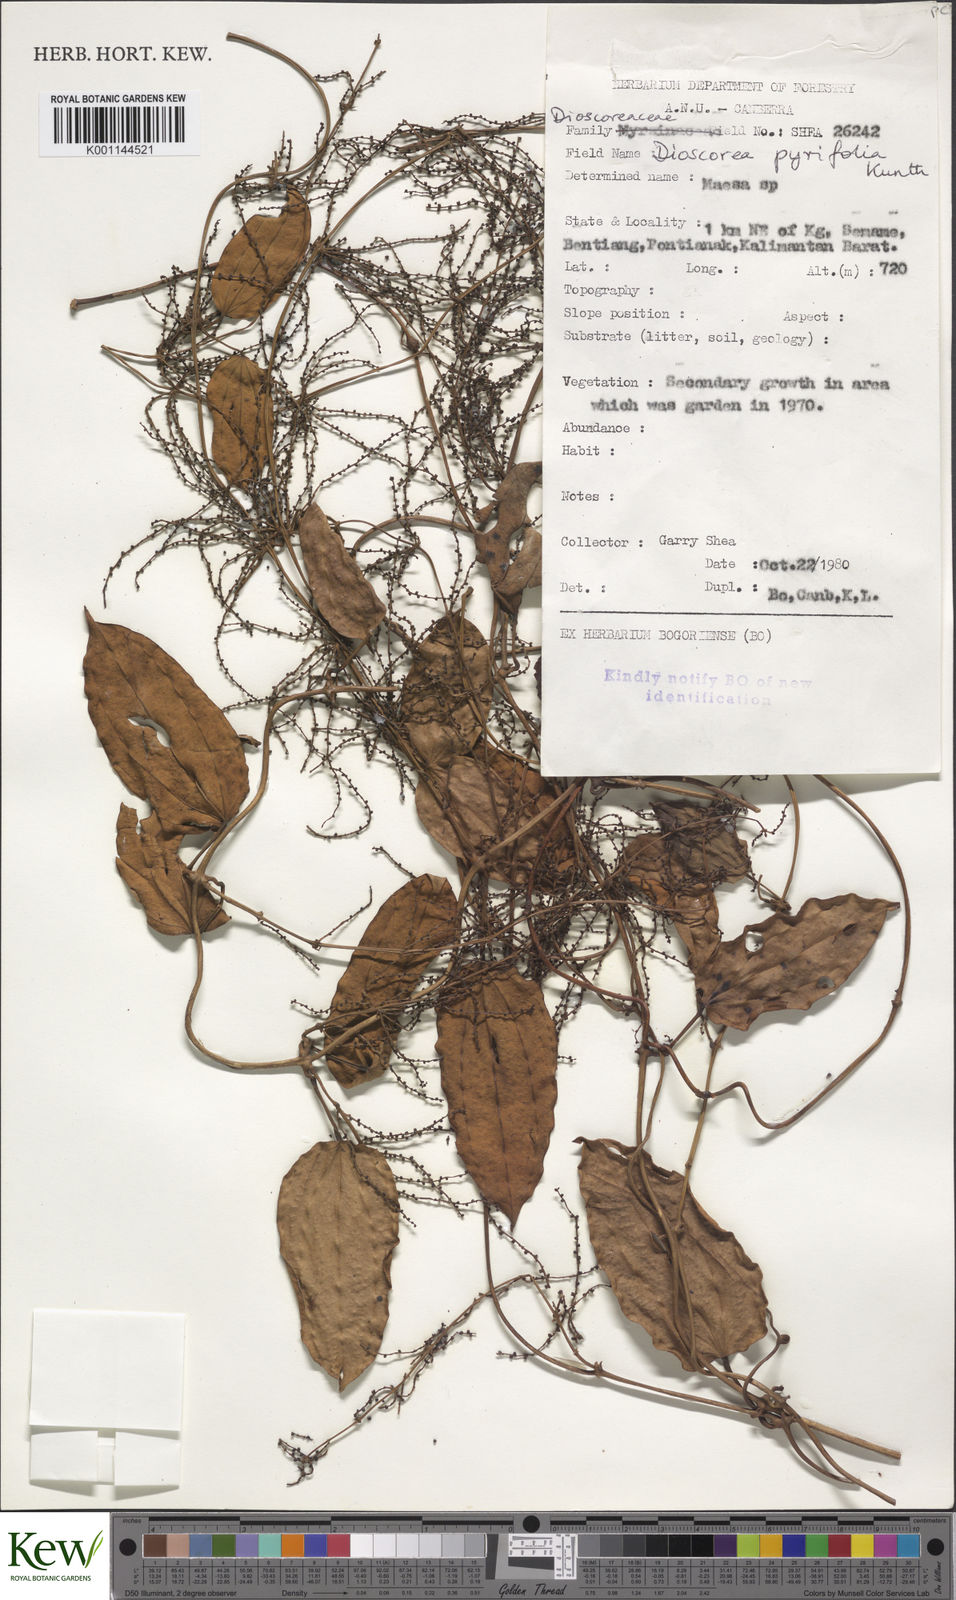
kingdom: Plantae
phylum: Tracheophyta
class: Liliopsida
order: Dioscoreales
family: Dioscoreaceae
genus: Dioscorea
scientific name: Dioscorea pyrifolia
